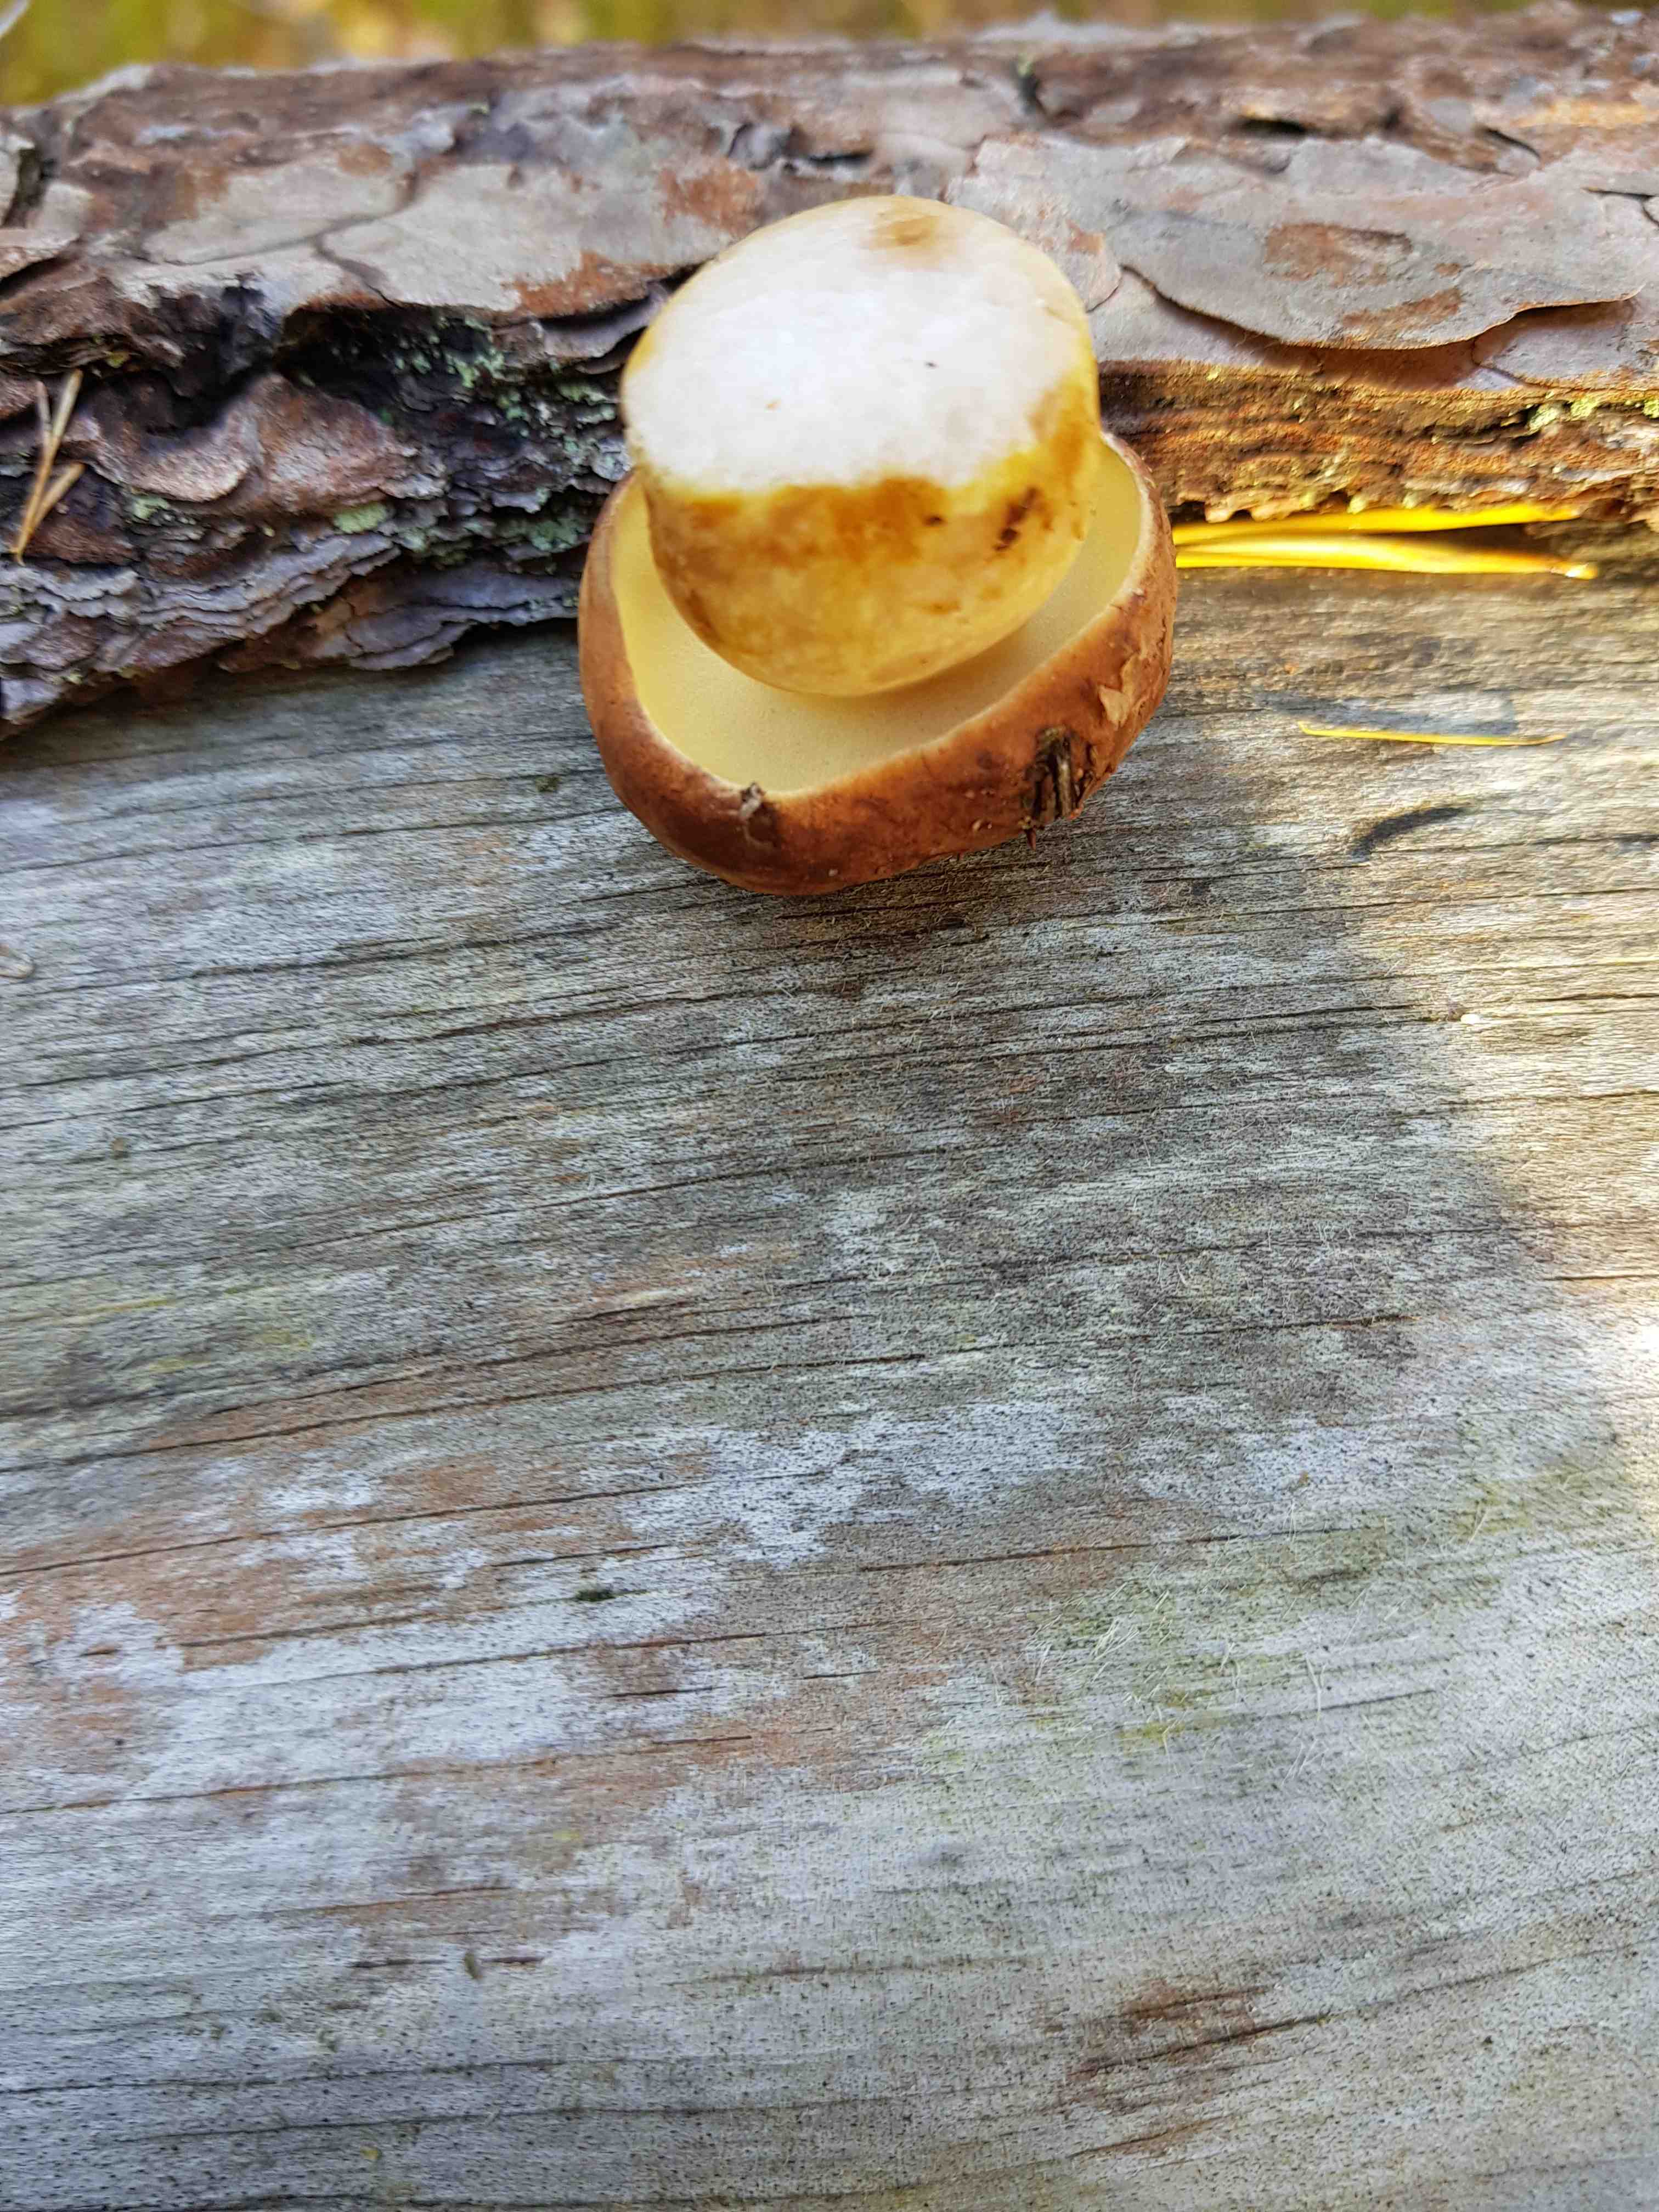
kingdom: Fungi
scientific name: Fungi
